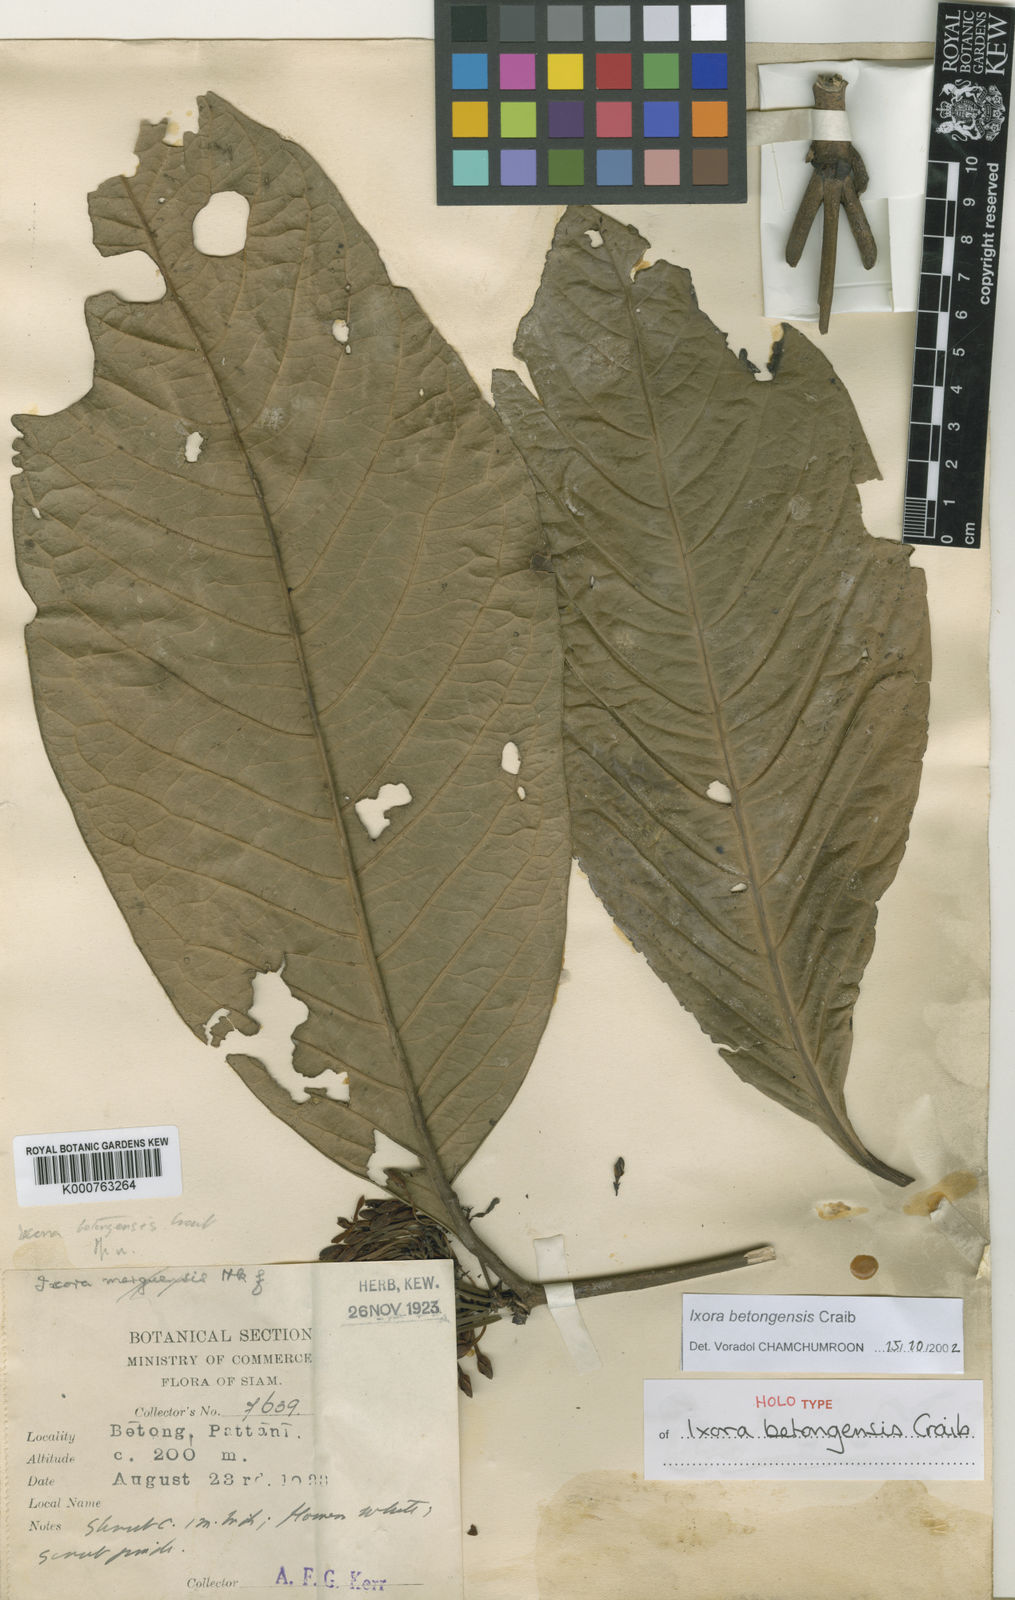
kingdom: Plantae
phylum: Tracheophyta
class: Magnoliopsida
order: Gentianales
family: Rubiaceae
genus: Ixora
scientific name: Ixora betongensis
